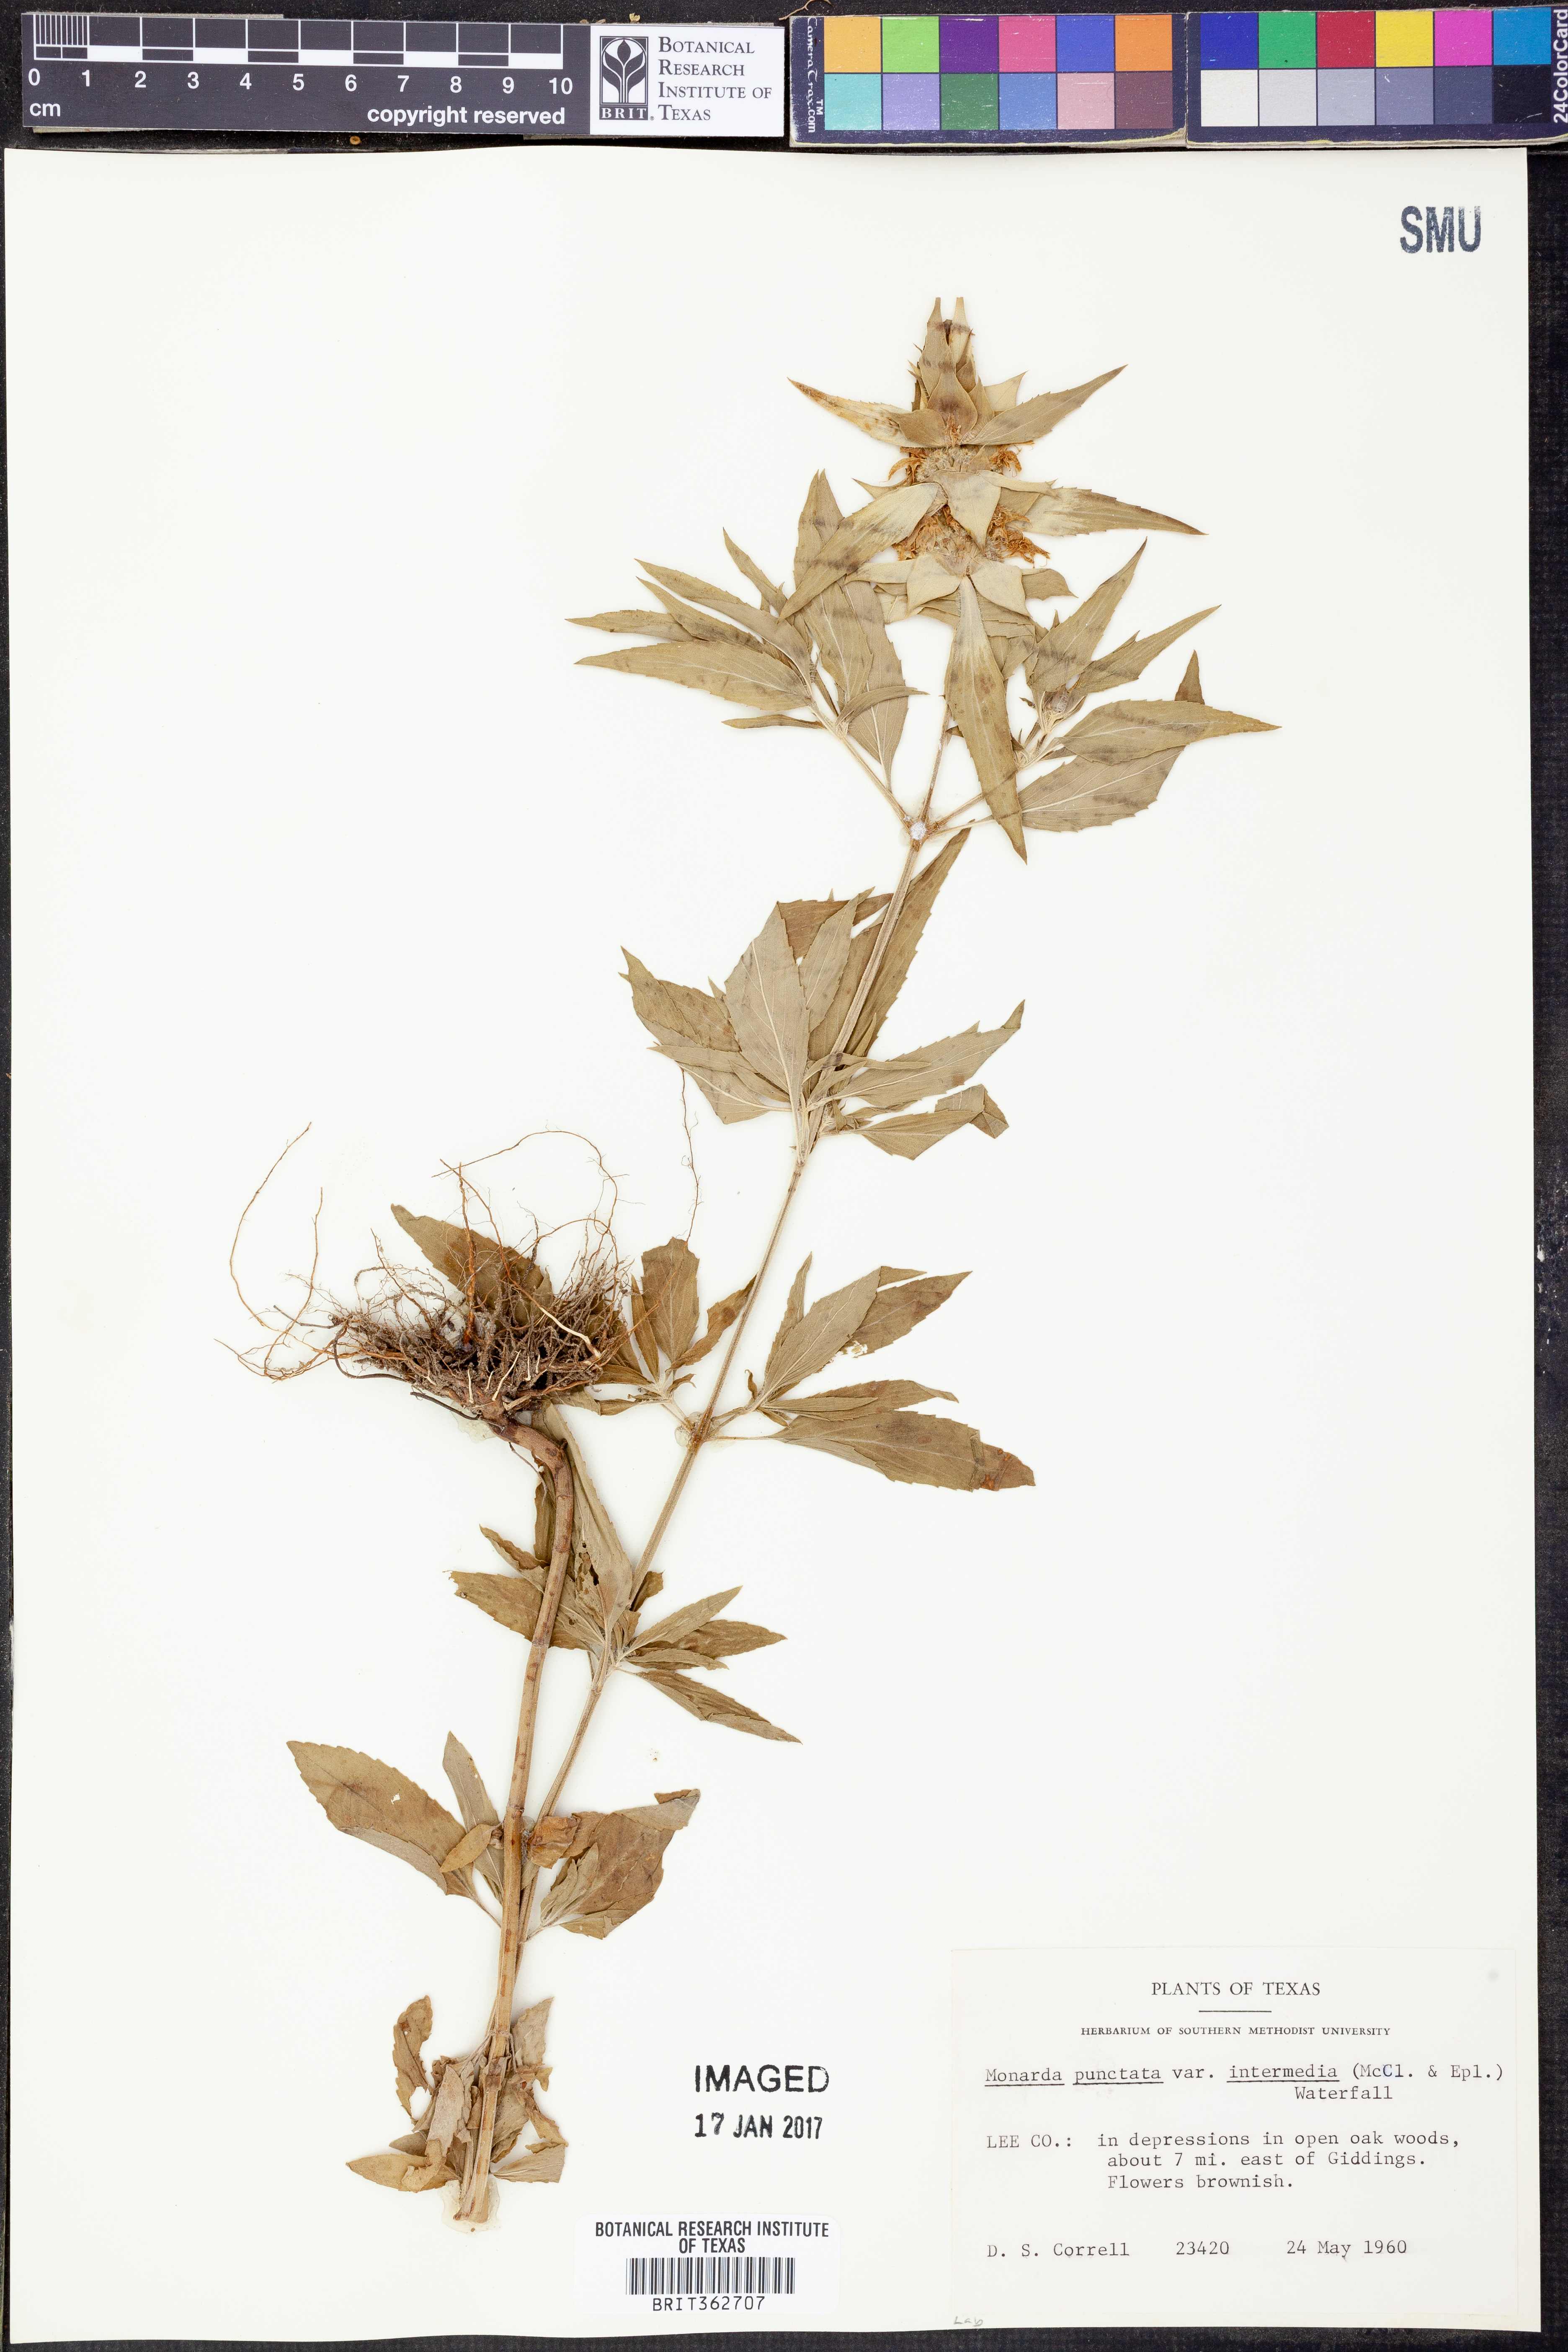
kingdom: Plantae
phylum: Tracheophyta
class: Magnoliopsida
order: Lamiales
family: Lamiaceae
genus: Monarda
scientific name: Monarda punctata
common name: Dotted monarda
